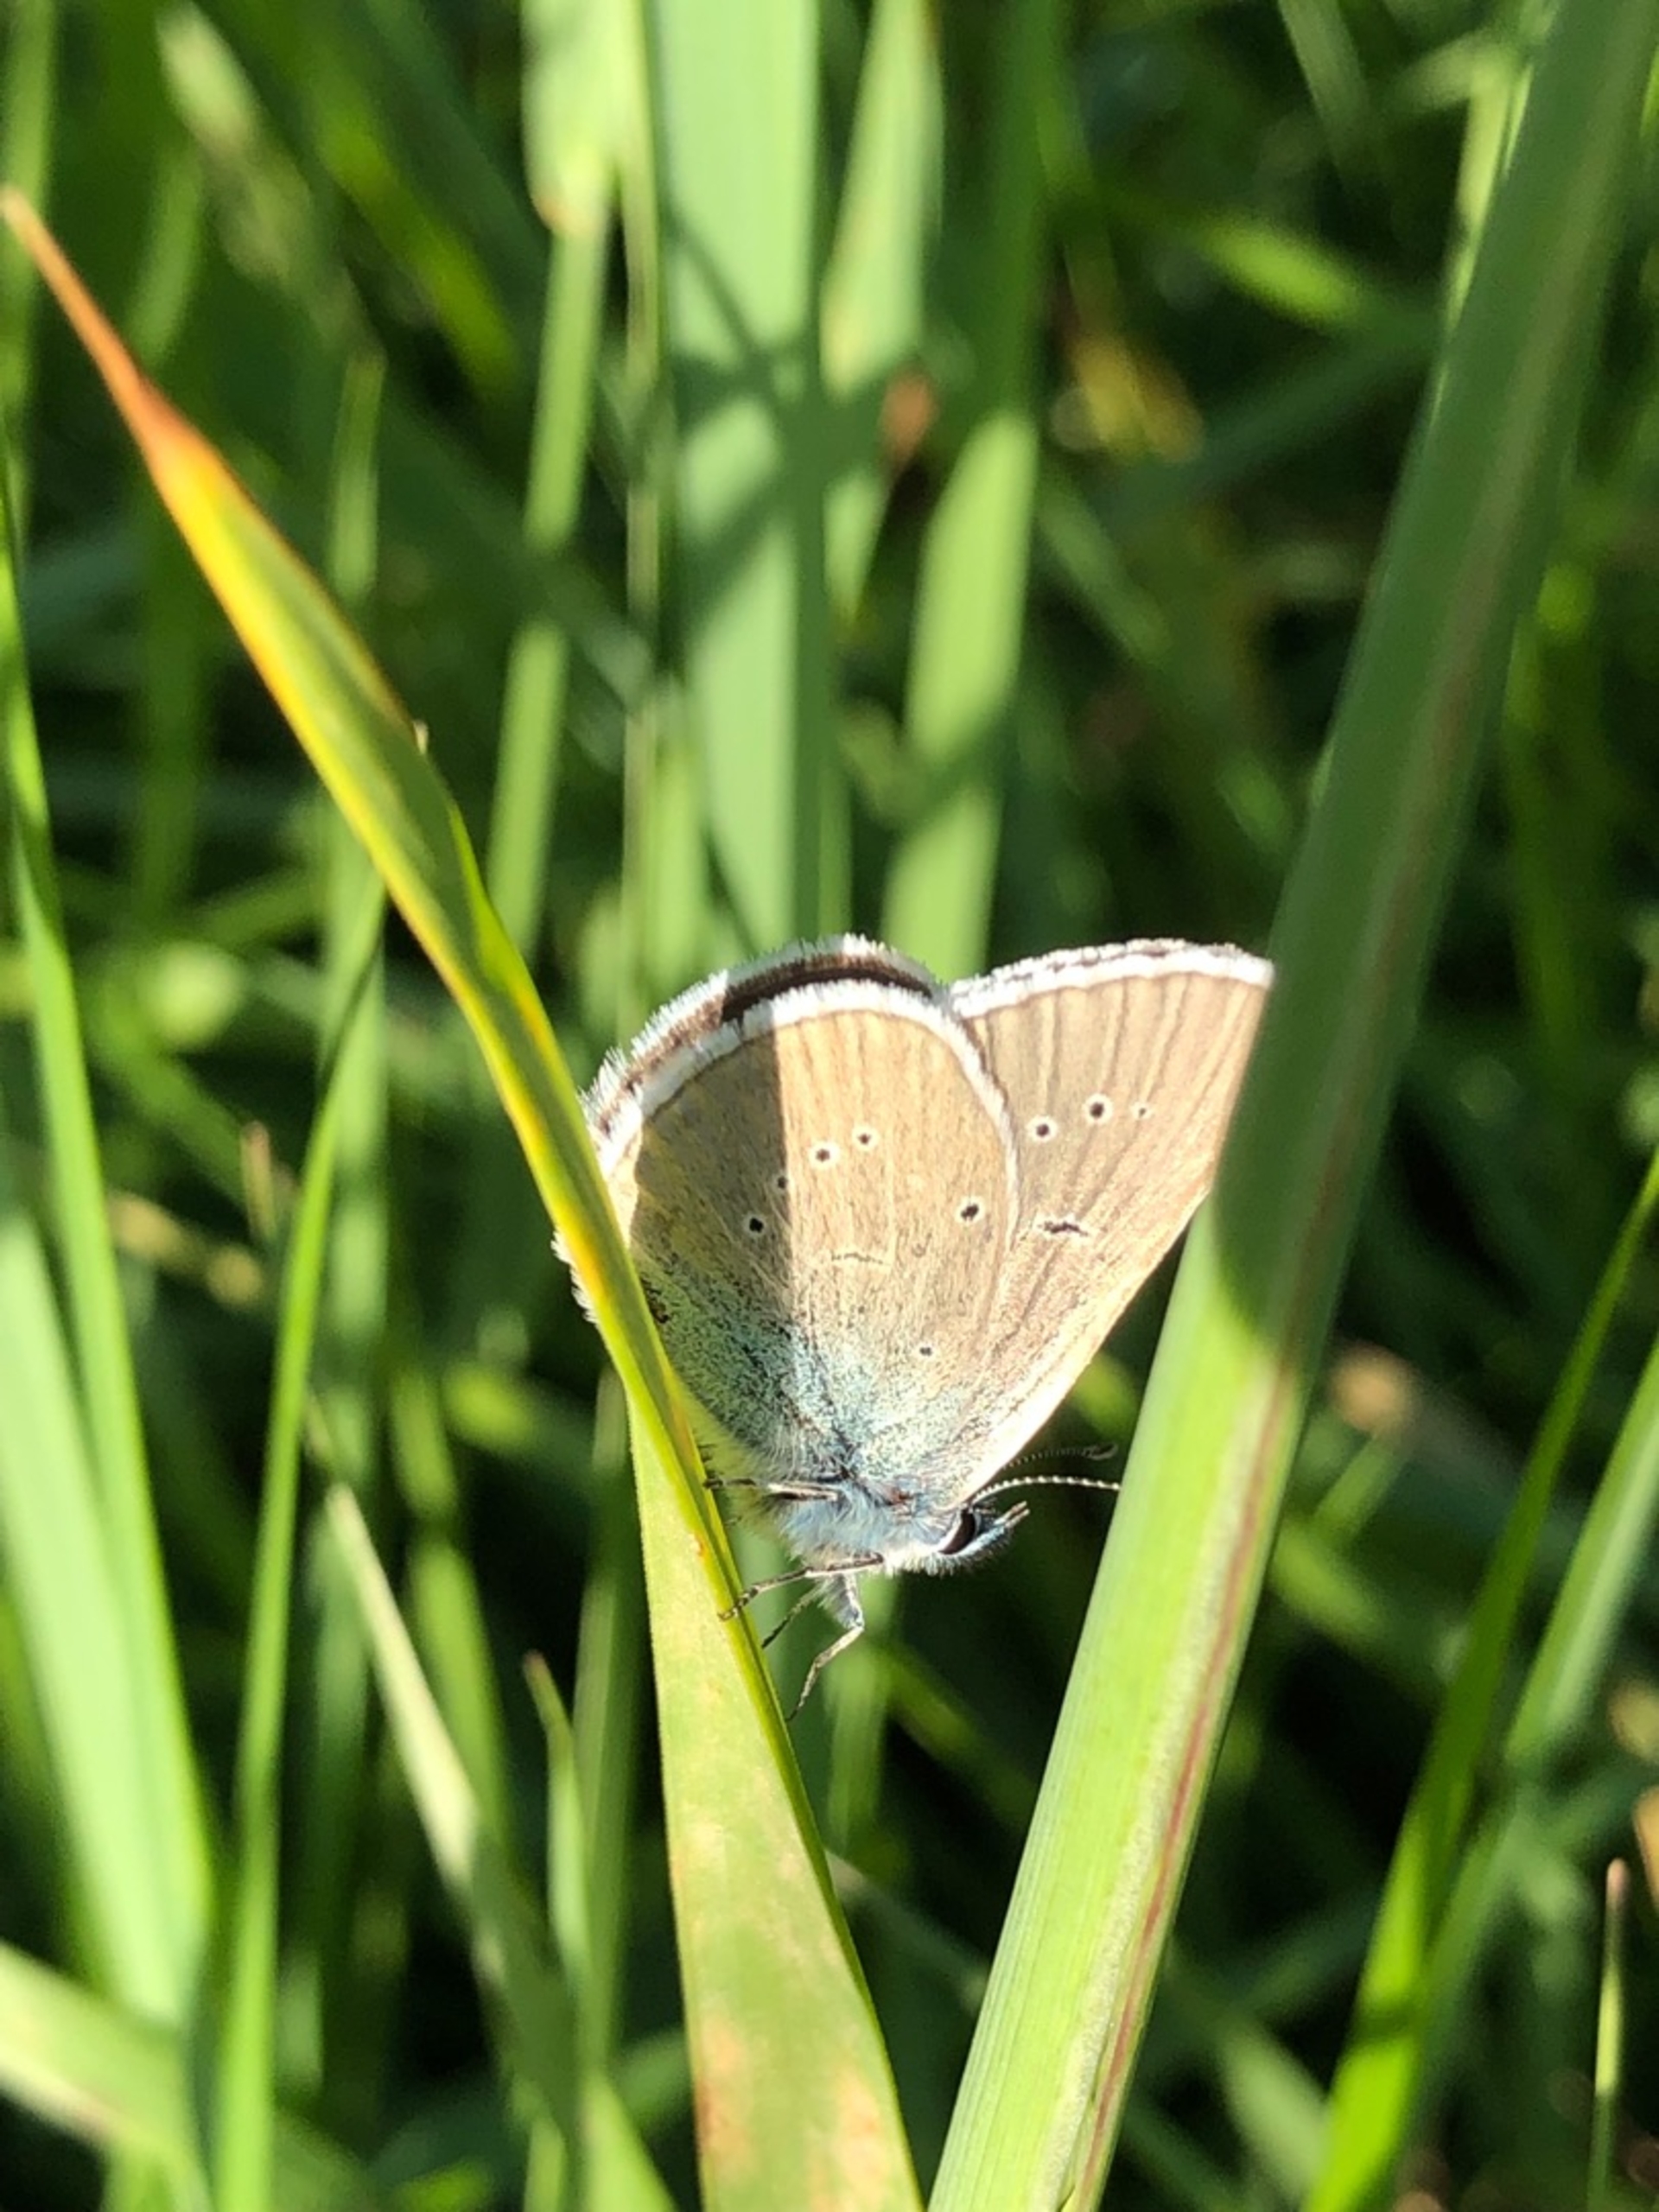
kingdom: Animalia
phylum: Arthropoda
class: Insecta
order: Lepidoptera
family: Lycaenidae
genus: Cyaniris
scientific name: Cyaniris semiargus
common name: Engblåfugl
